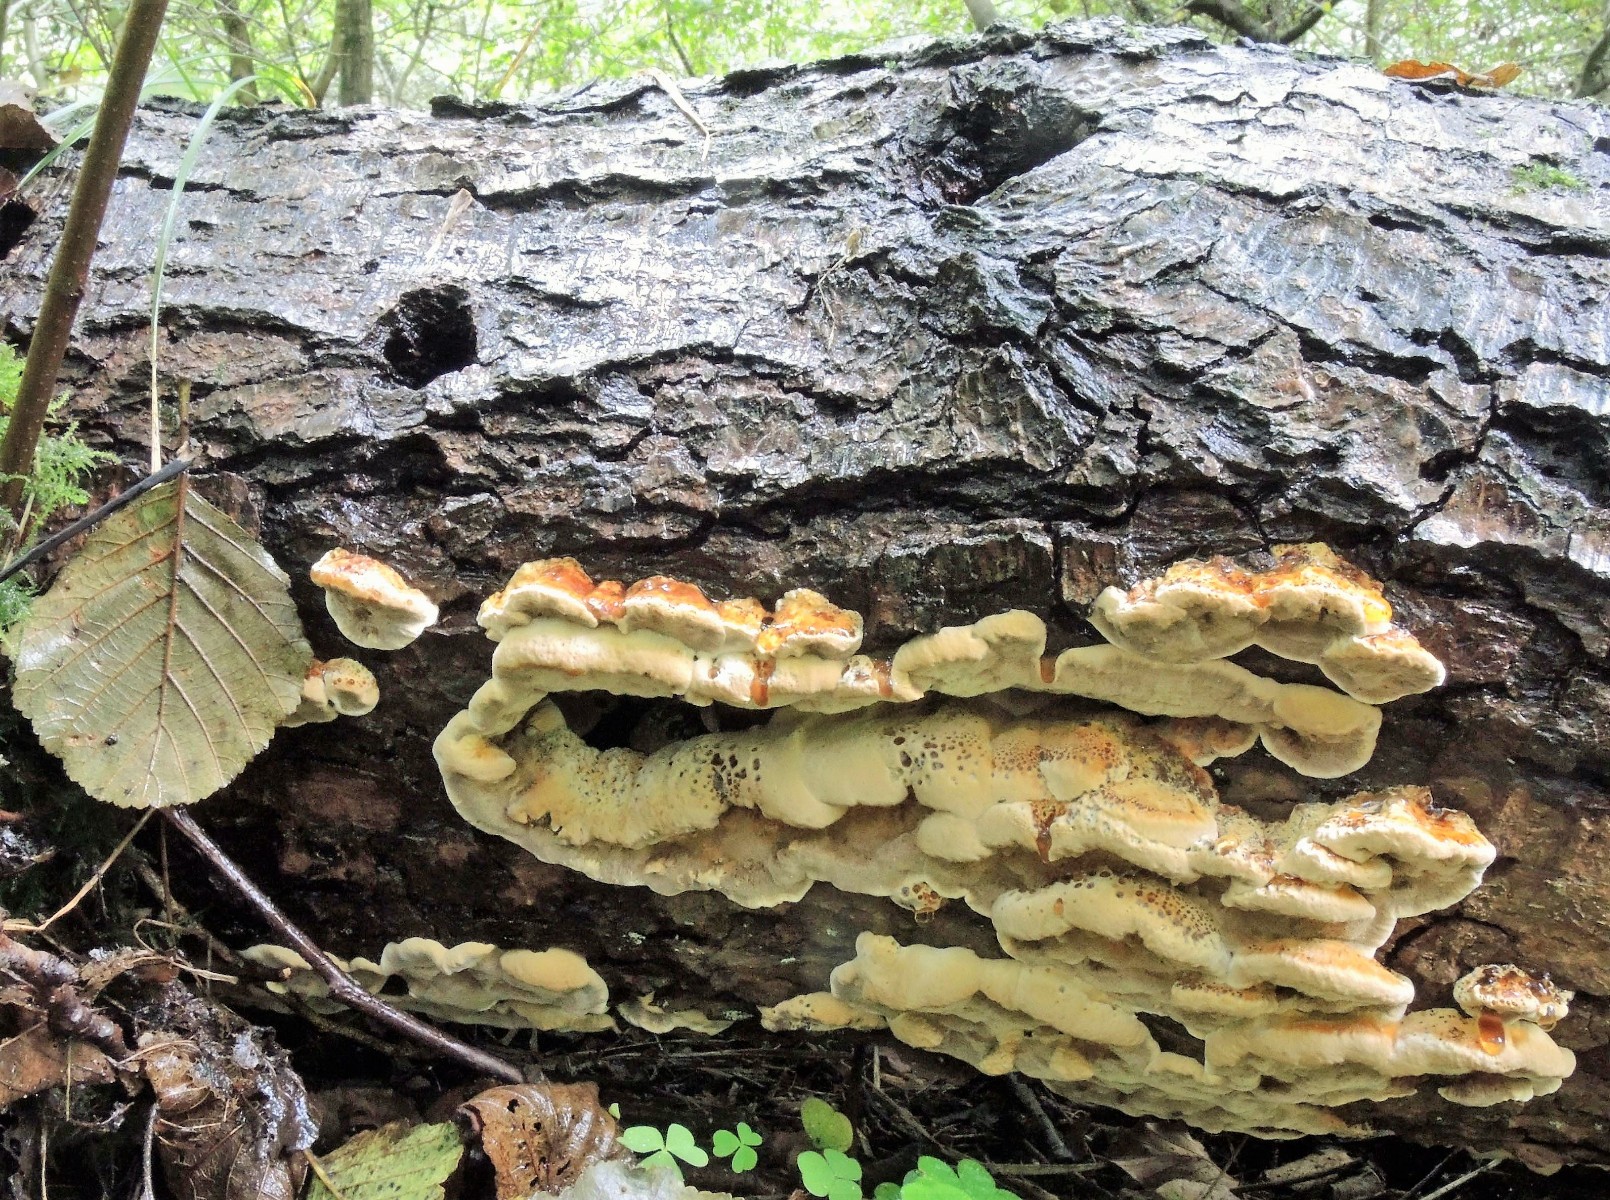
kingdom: Fungi
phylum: Basidiomycota
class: Agaricomycetes
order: Hymenochaetales
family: Hymenochaetaceae
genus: Xanthoporia
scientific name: Xanthoporia radiata
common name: elle-spejlporesvamp
